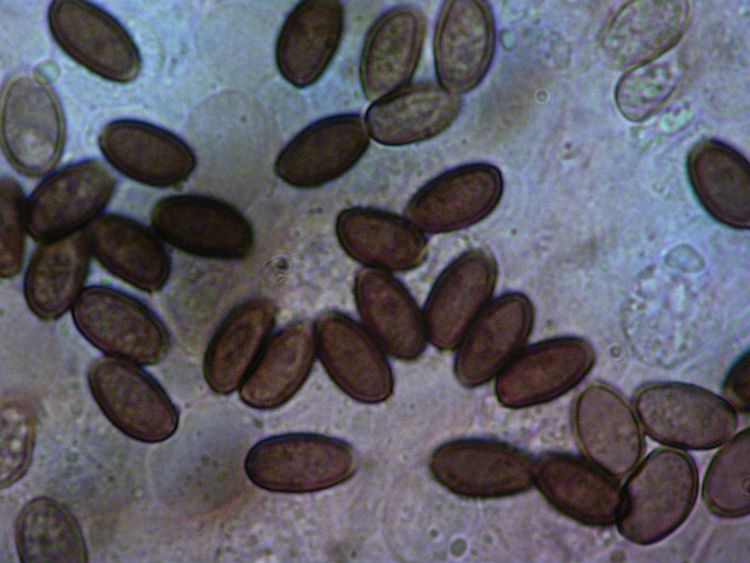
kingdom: Fungi
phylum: Basidiomycota
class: Agaricomycetes
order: Agaricales
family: Psathyrellaceae
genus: Psathyrella
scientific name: Psathyrella fibrillosa
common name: almindelig mørkhat
